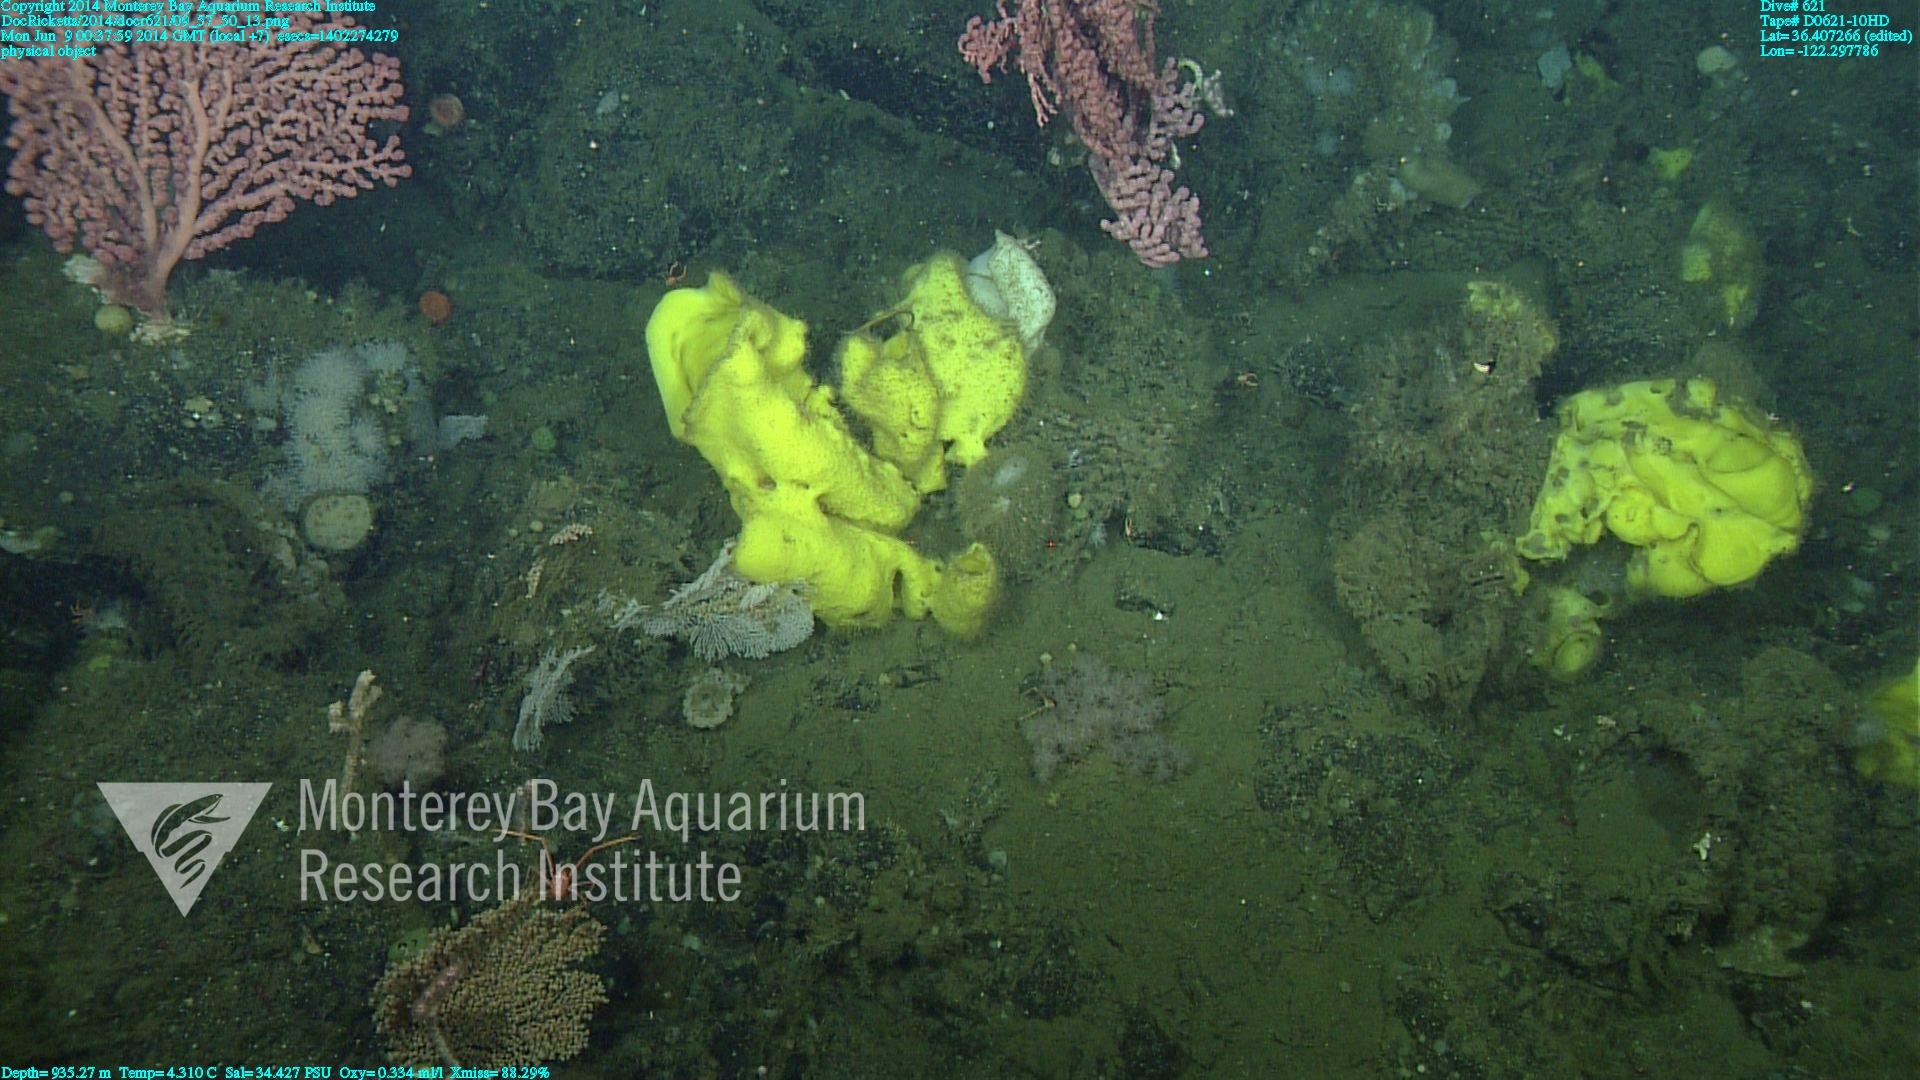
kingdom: Animalia
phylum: Cnidaria
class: Anthozoa
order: Malacalcyonacea
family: Alcyoniidae
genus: Gersemia
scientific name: Gersemia juliepackardae
